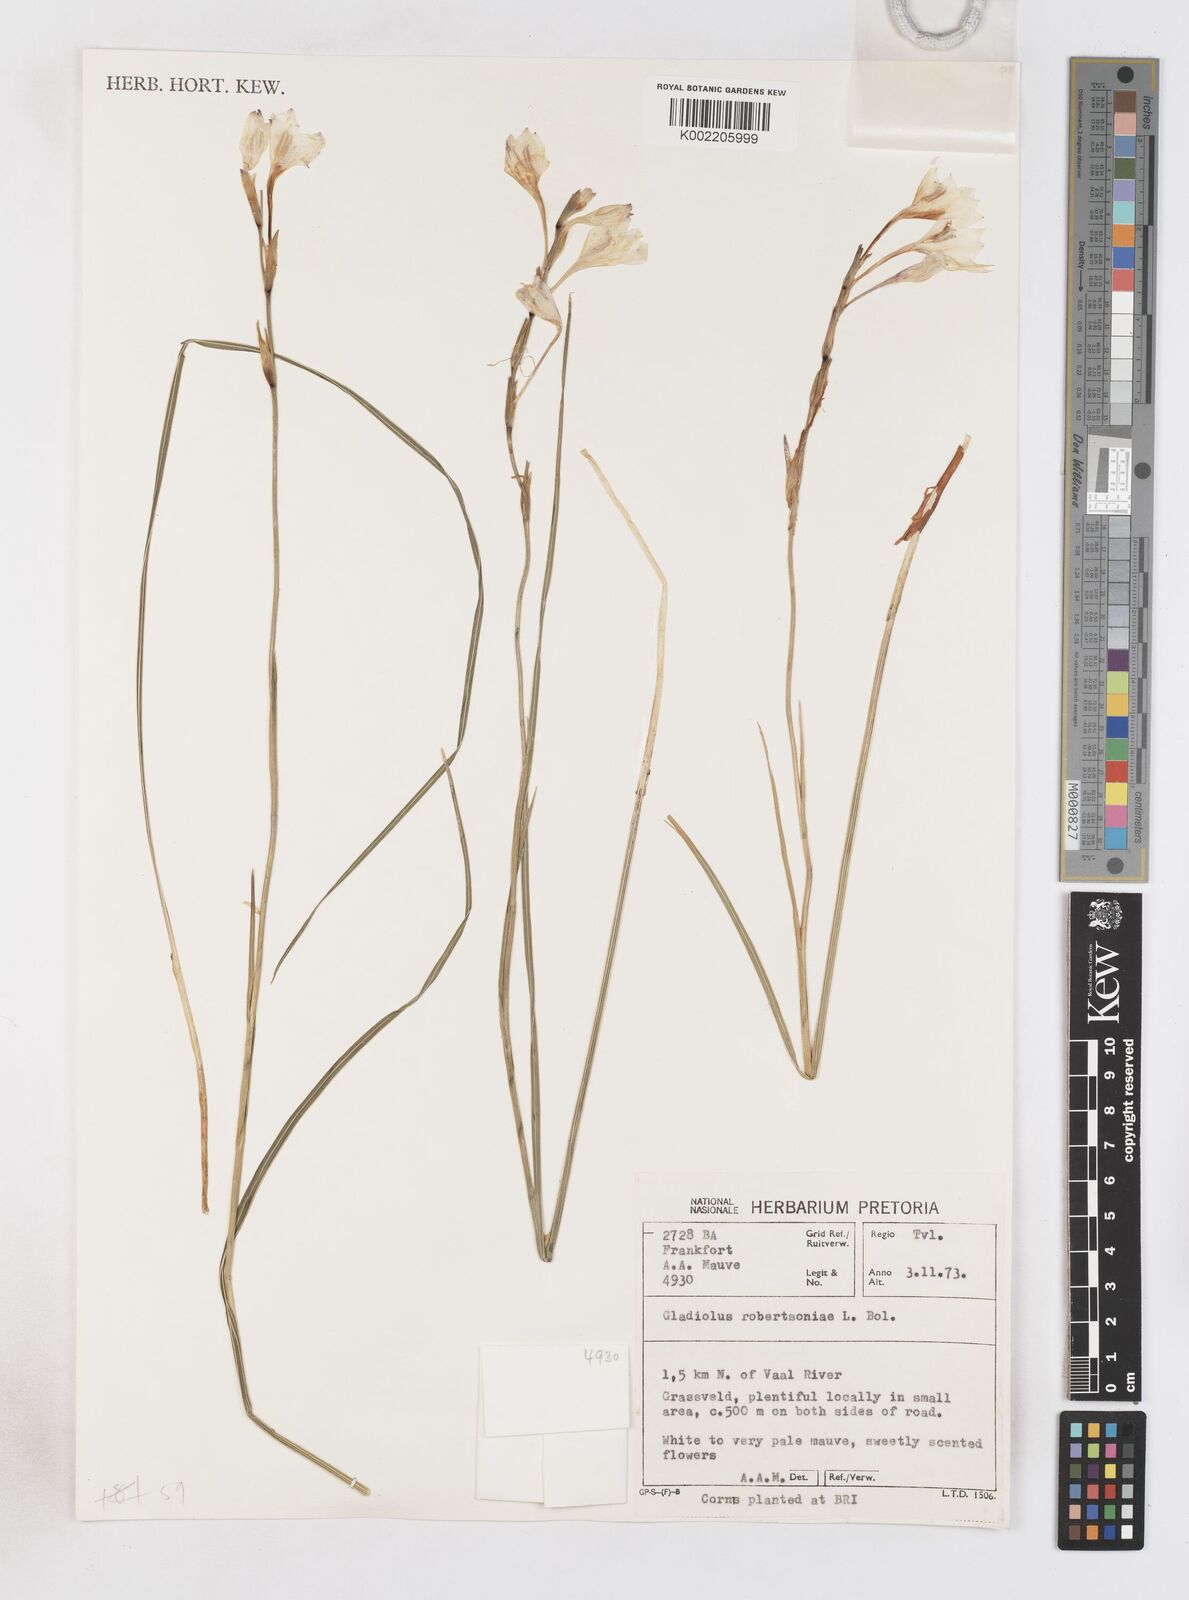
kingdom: Plantae
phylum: Tracheophyta
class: Liliopsida
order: Asparagales
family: Iridaceae
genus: Gladiolus
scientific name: Gladiolus robertsoniae
